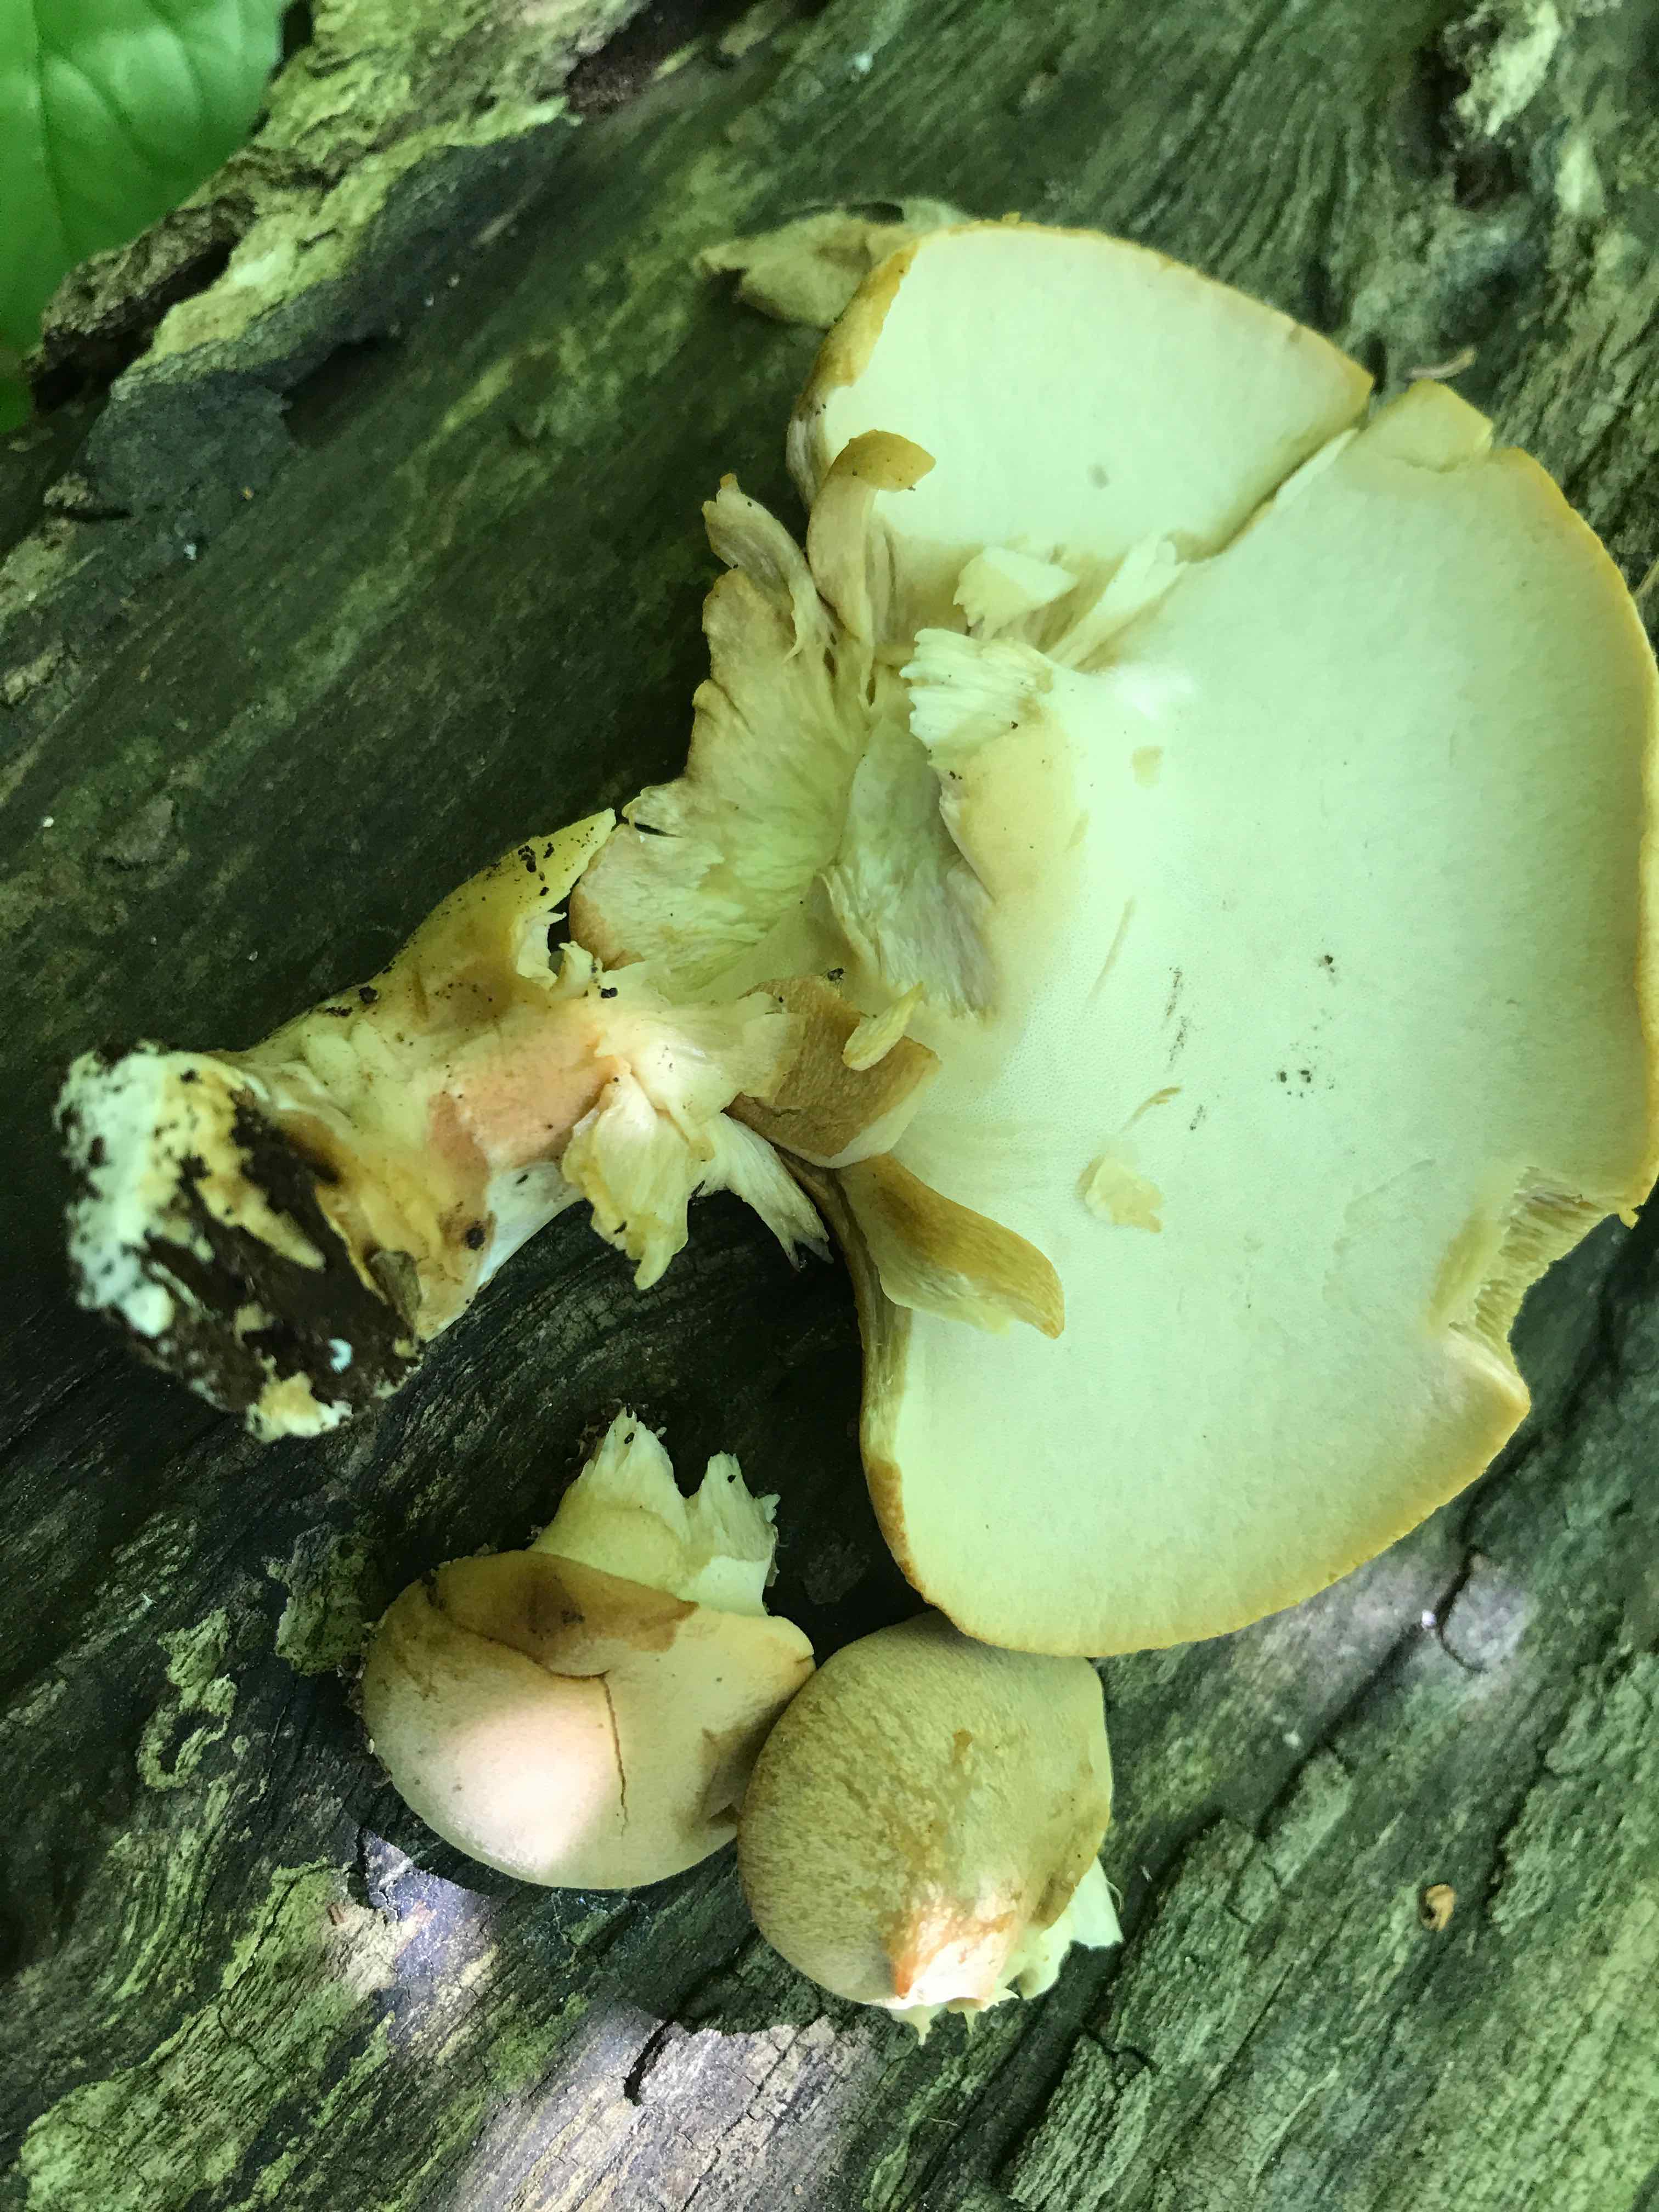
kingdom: Fungi
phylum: Basidiomycota
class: Agaricomycetes
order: Polyporales
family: Polyporaceae
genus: Cerioporus
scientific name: Cerioporus varius
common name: foranderlig stilkporesvamp
